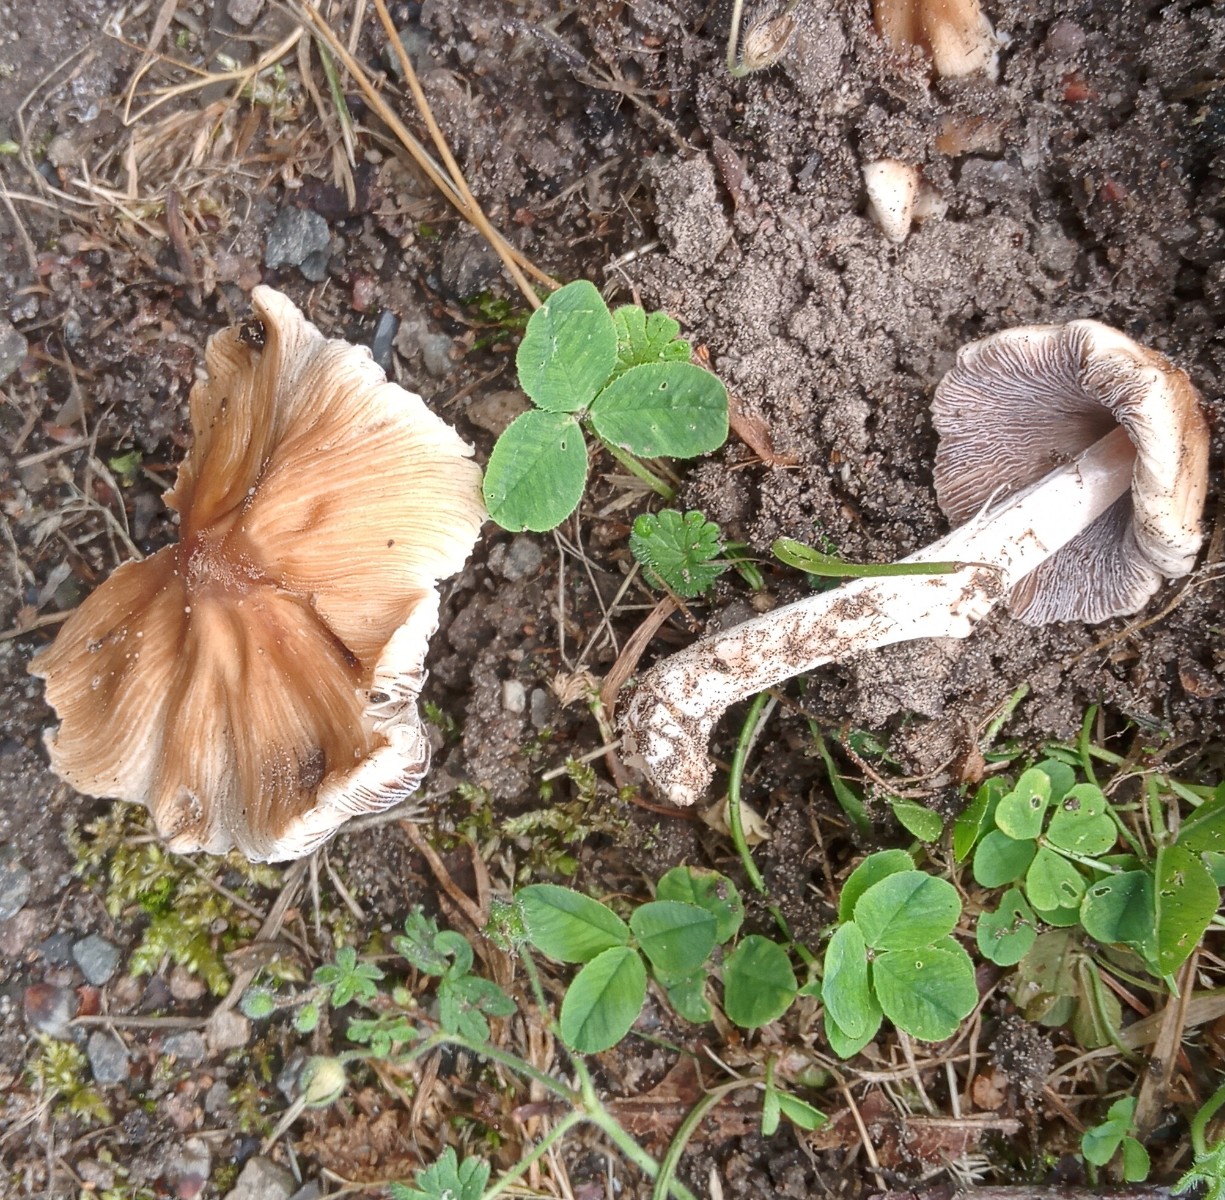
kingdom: Fungi
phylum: Basidiomycota
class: Agaricomycetes
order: Agaricales
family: Inocybaceae
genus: Inosperma
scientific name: Inosperma
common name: Trævlhat
